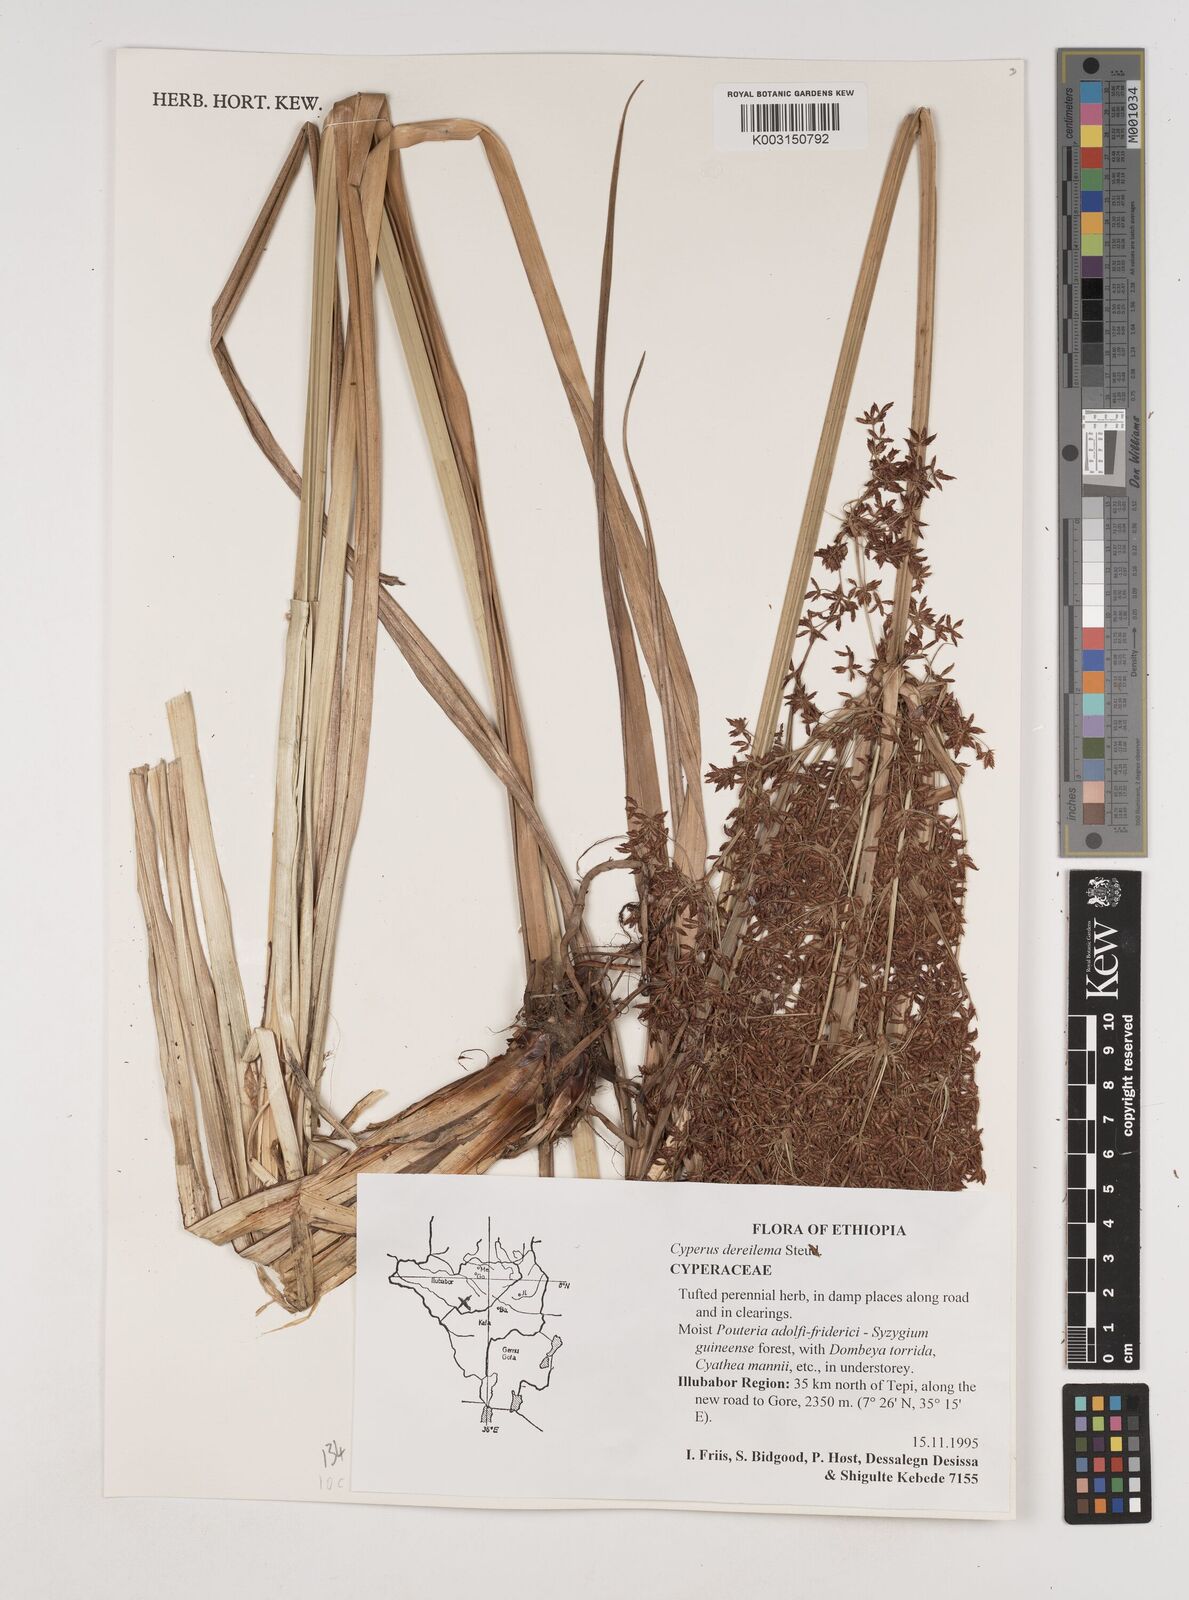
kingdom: Plantae
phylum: Tracheophyta
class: Liliopsida
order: Poales
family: Cyperaceae
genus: Cyperus
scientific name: Cyperus derreilema
